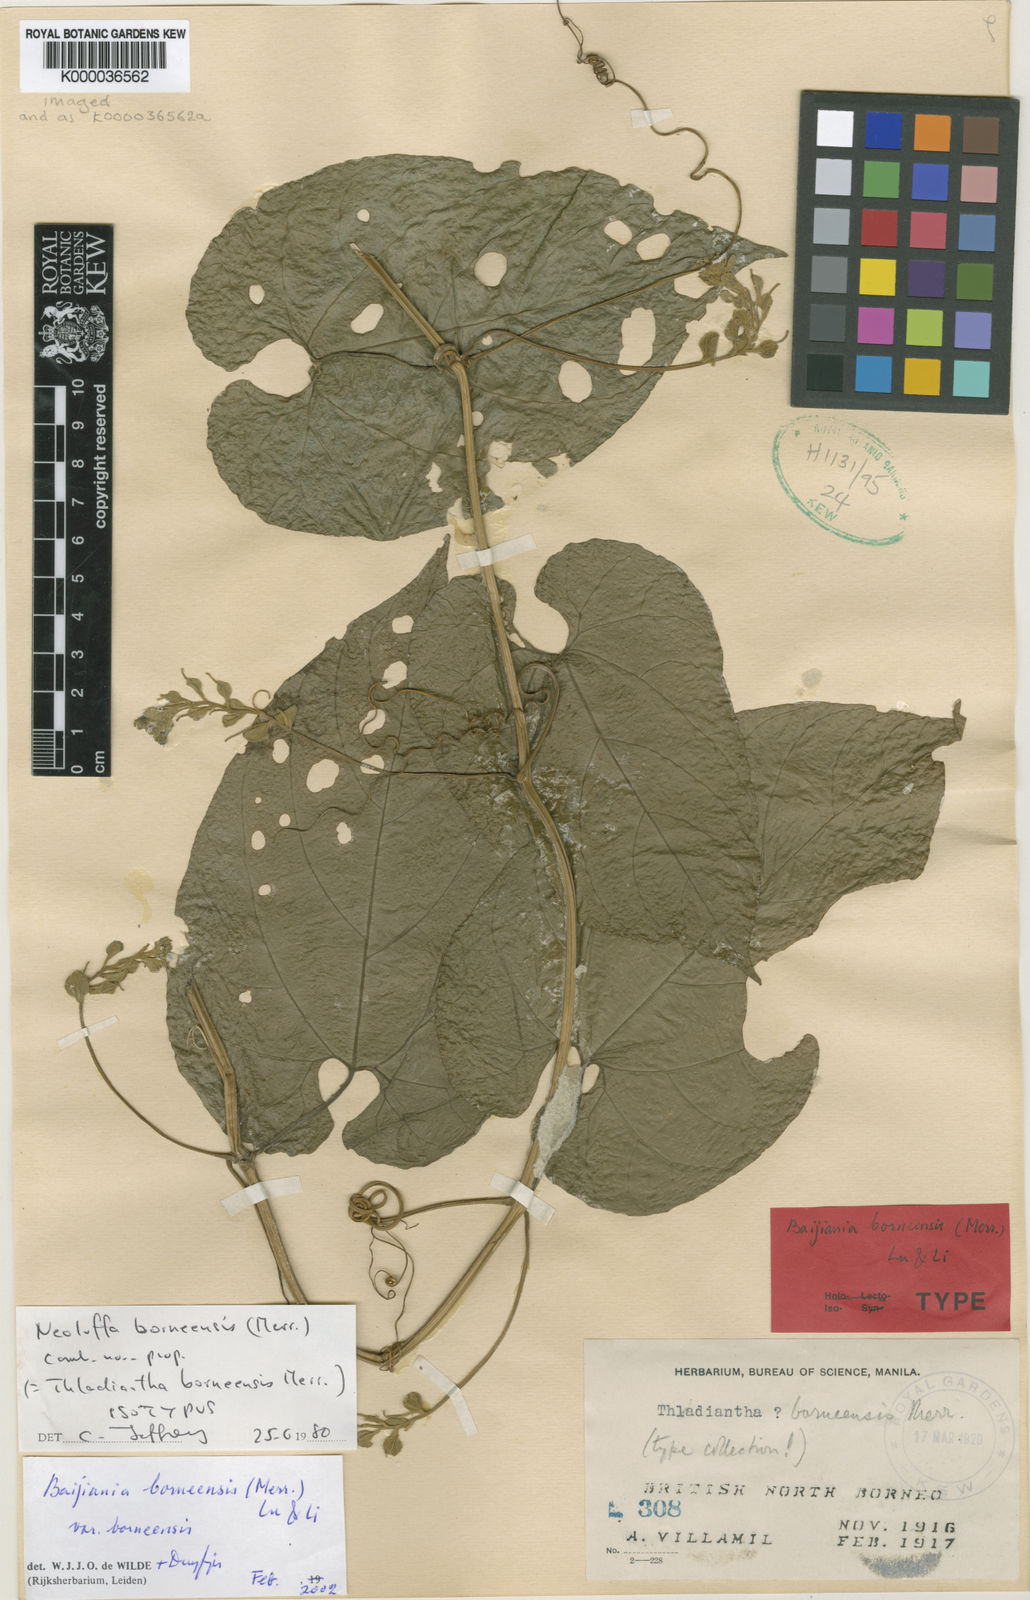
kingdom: Plantae
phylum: Tracheophyta
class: Magnoliopsida
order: Cucurbitales
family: Cucurbitaceae
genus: Baijiania
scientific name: Baijiania borneensis
